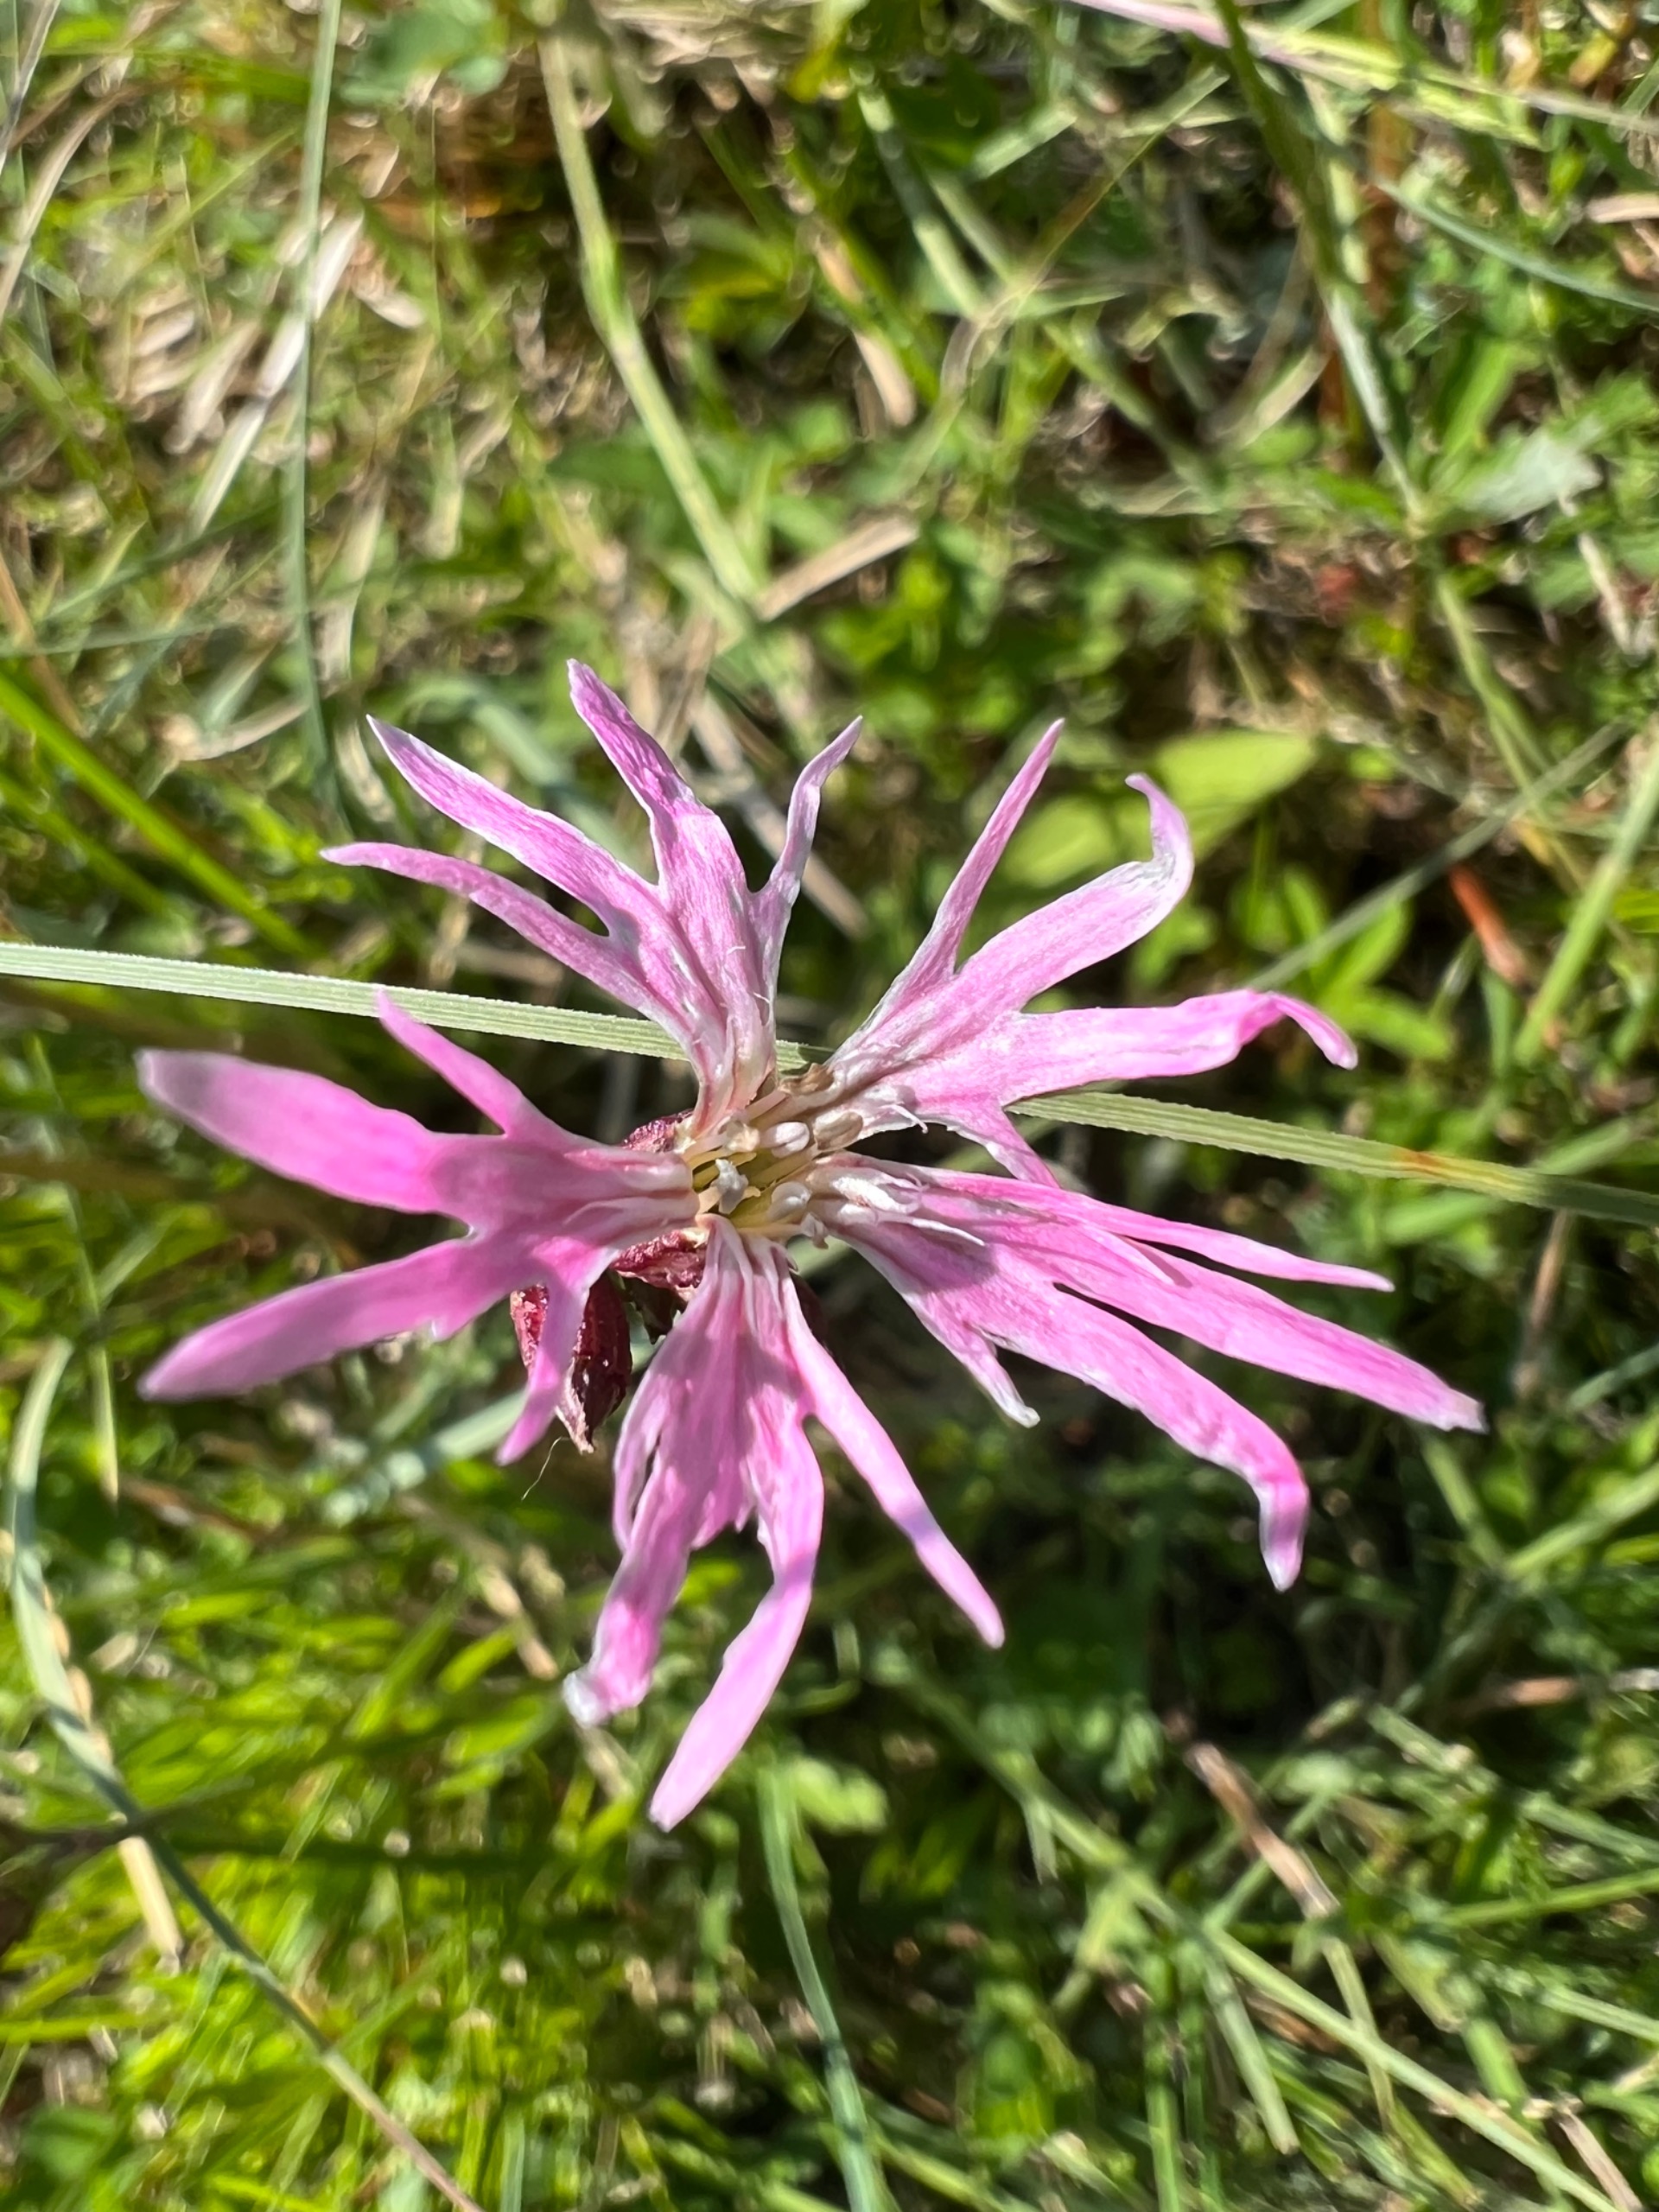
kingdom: Plantae
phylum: Tracheophyta
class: Magnoliopsida
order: Caryophyllales
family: Caryophyllaceae
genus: Silene
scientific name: Silene flos-cuculi
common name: Trævlekrone
